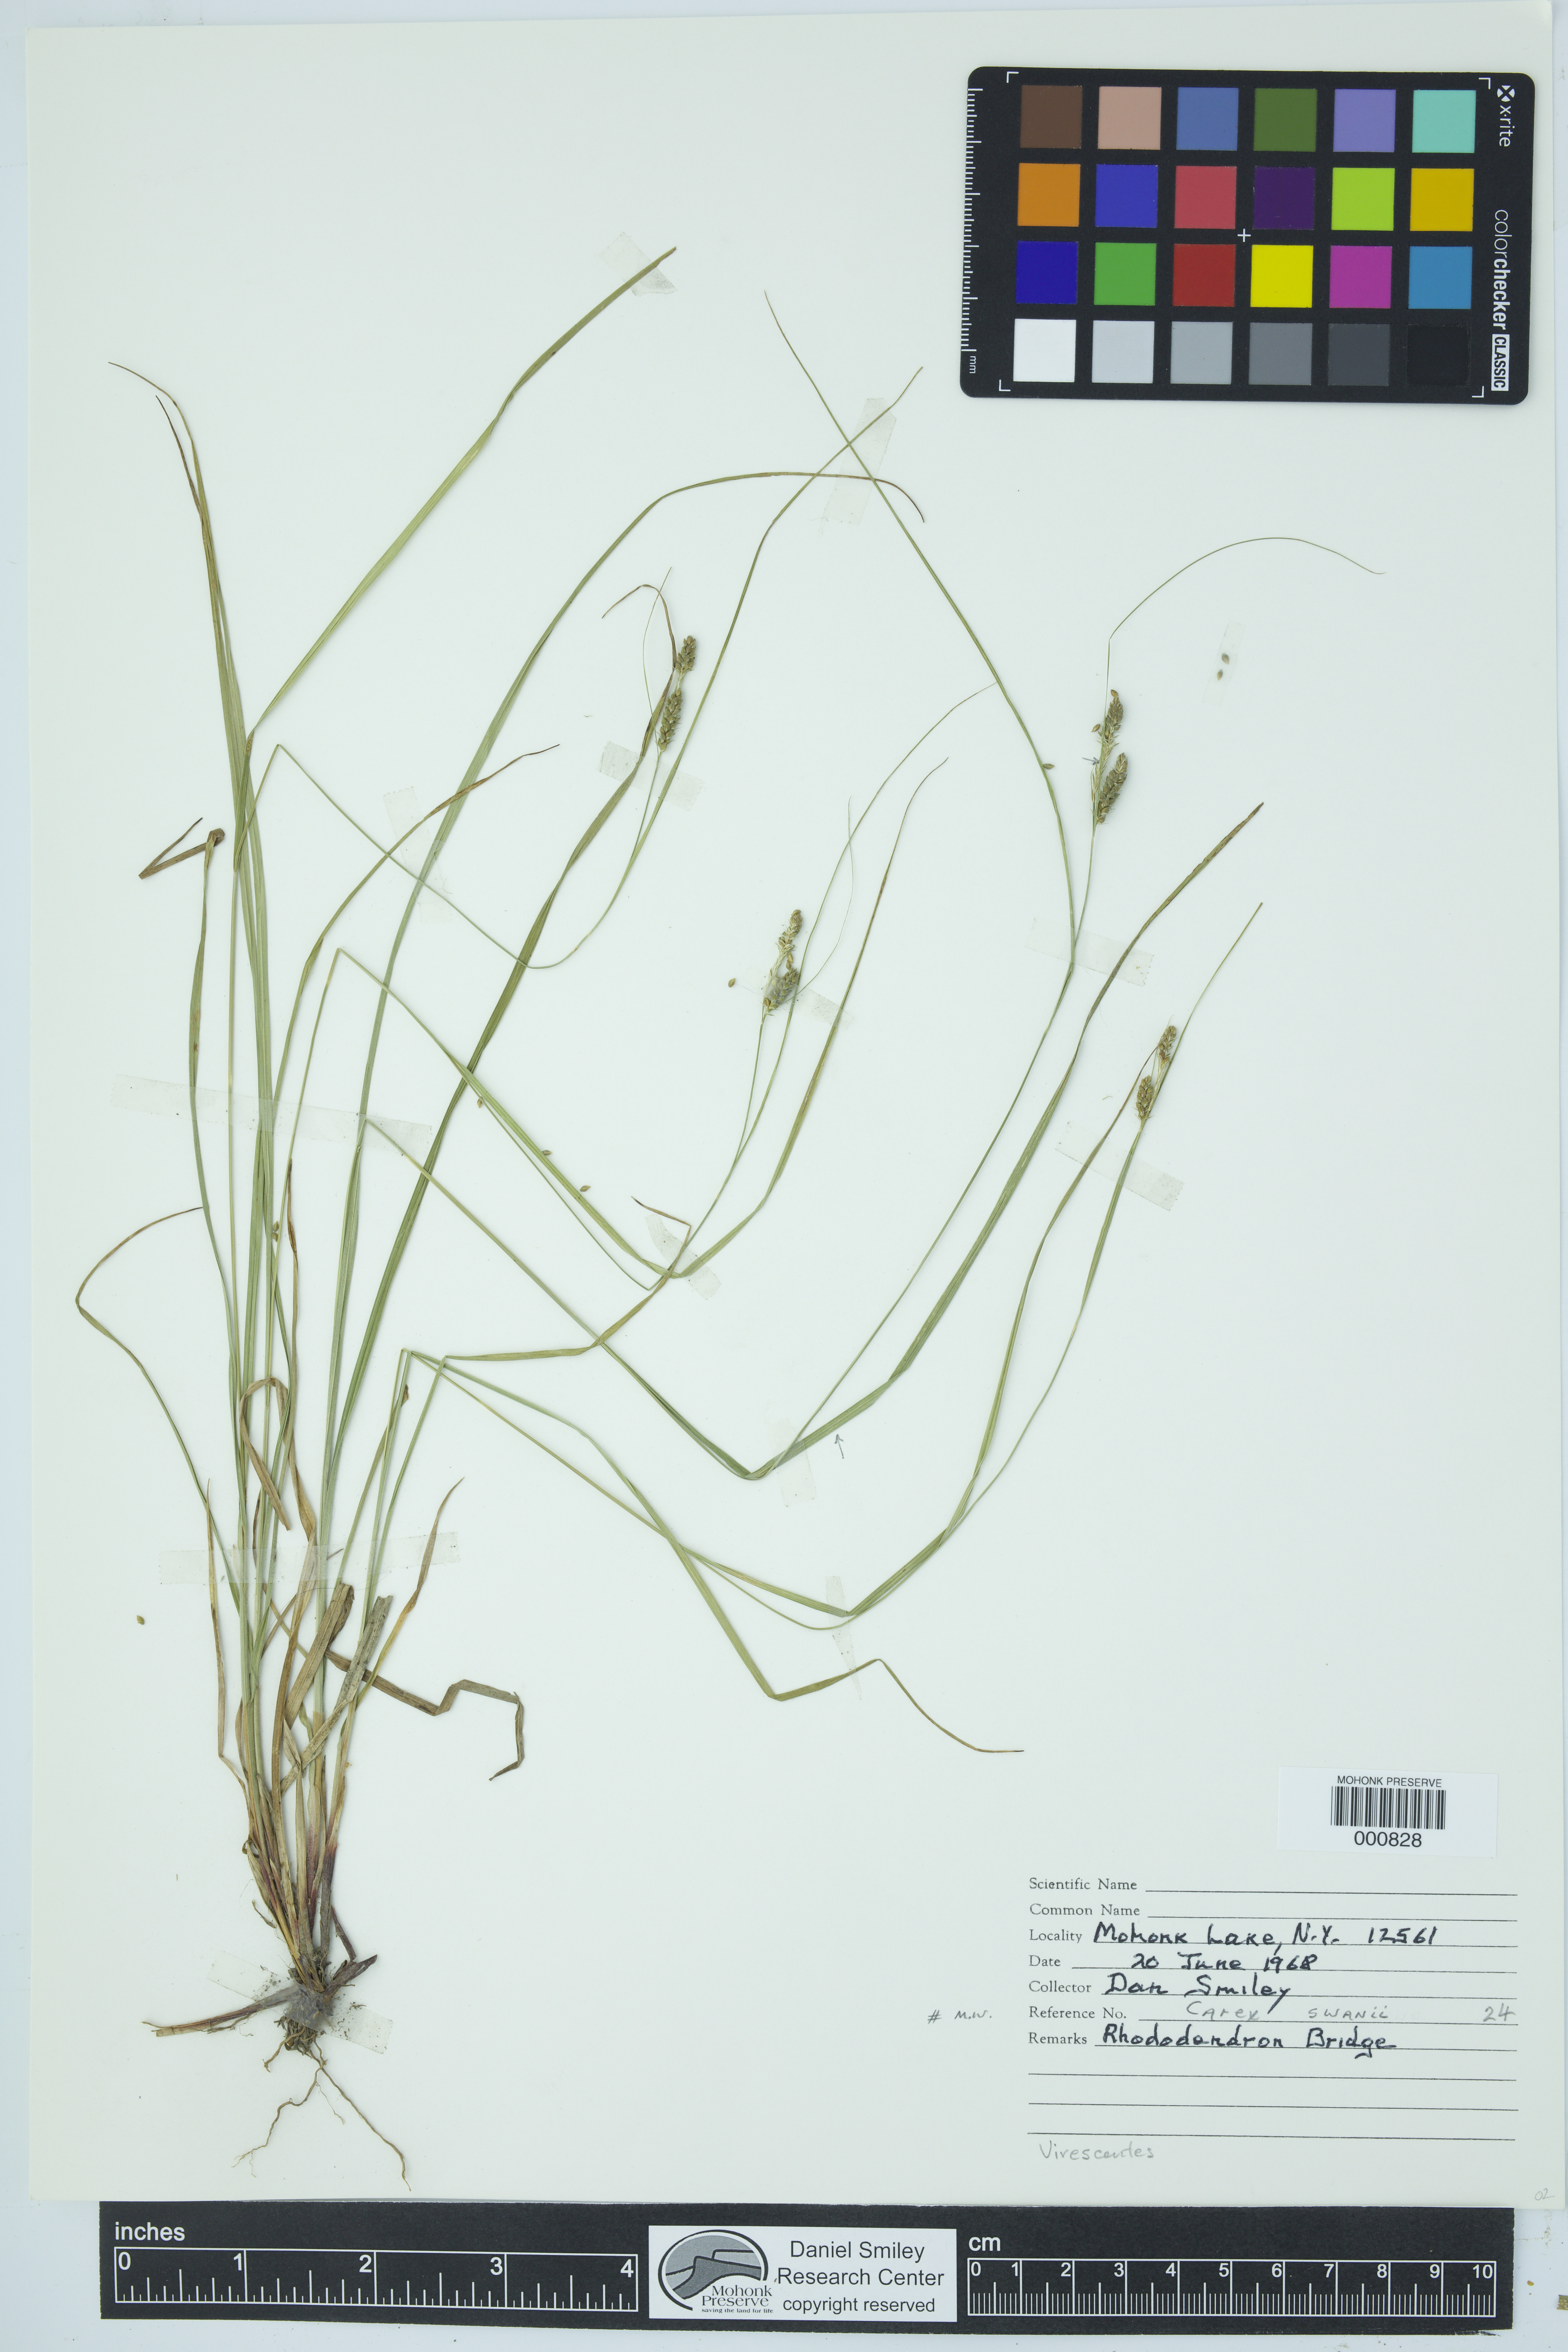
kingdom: Plantae
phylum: Tracheophyta
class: Liliopsida
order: Poales
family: Cyperaceae
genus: Carex
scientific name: Carex swanii
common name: Downy green sedge
